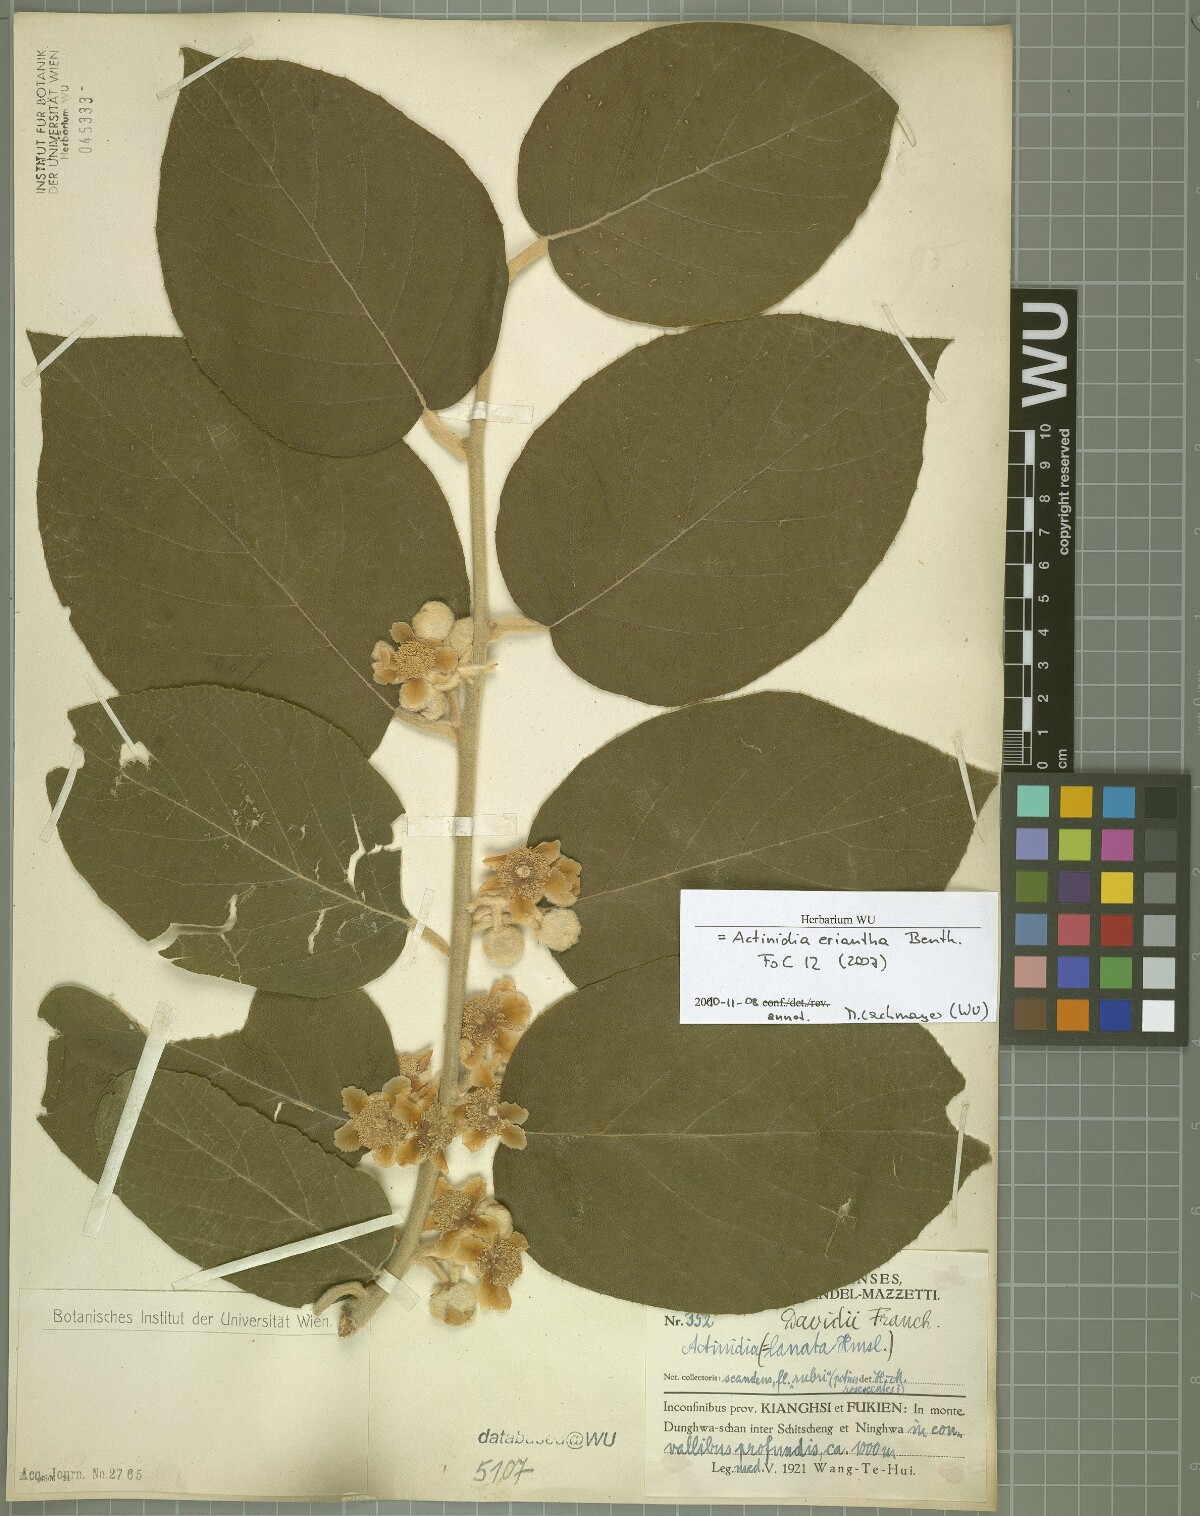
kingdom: Plantae
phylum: Tracheophyta
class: Magnoliopsida
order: Ericales
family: Actinidiaceae
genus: Actinidia
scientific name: Actinidia eriantha
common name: Velvetvine
